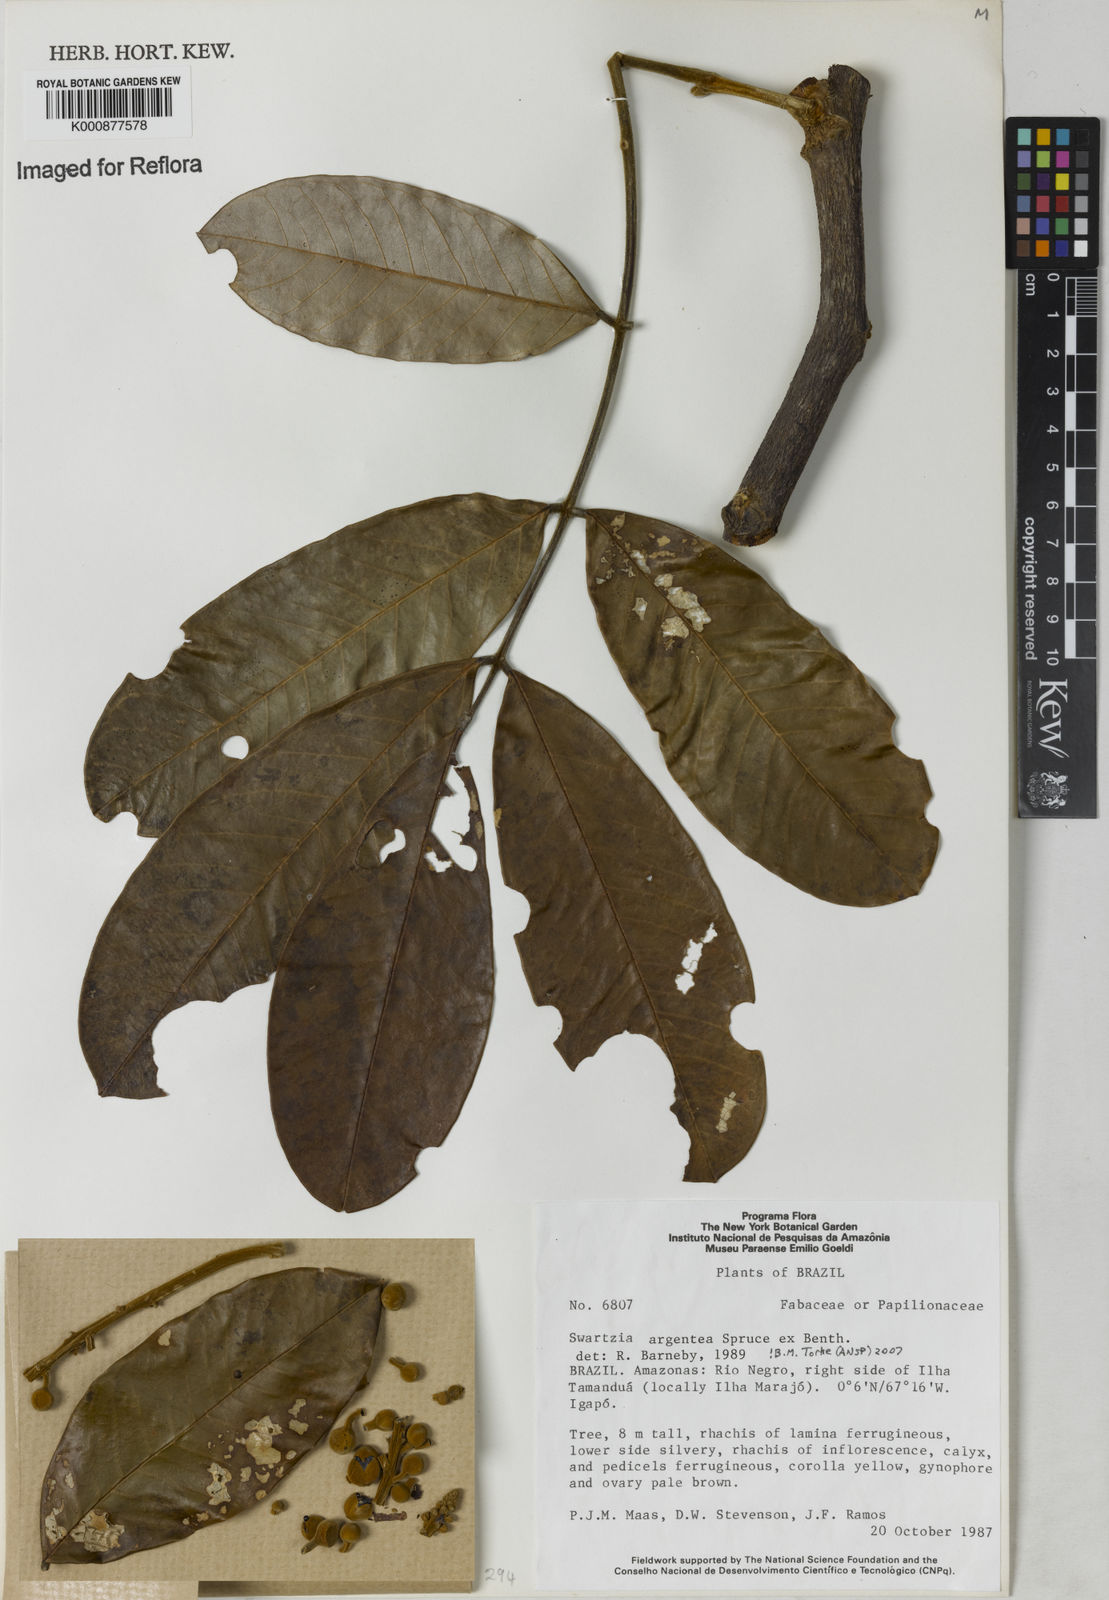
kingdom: Plantae
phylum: Tracheophyta
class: Magnoliopsida
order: Fabales
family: Fabaceae
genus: Swartzia
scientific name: Swartzia argentea
